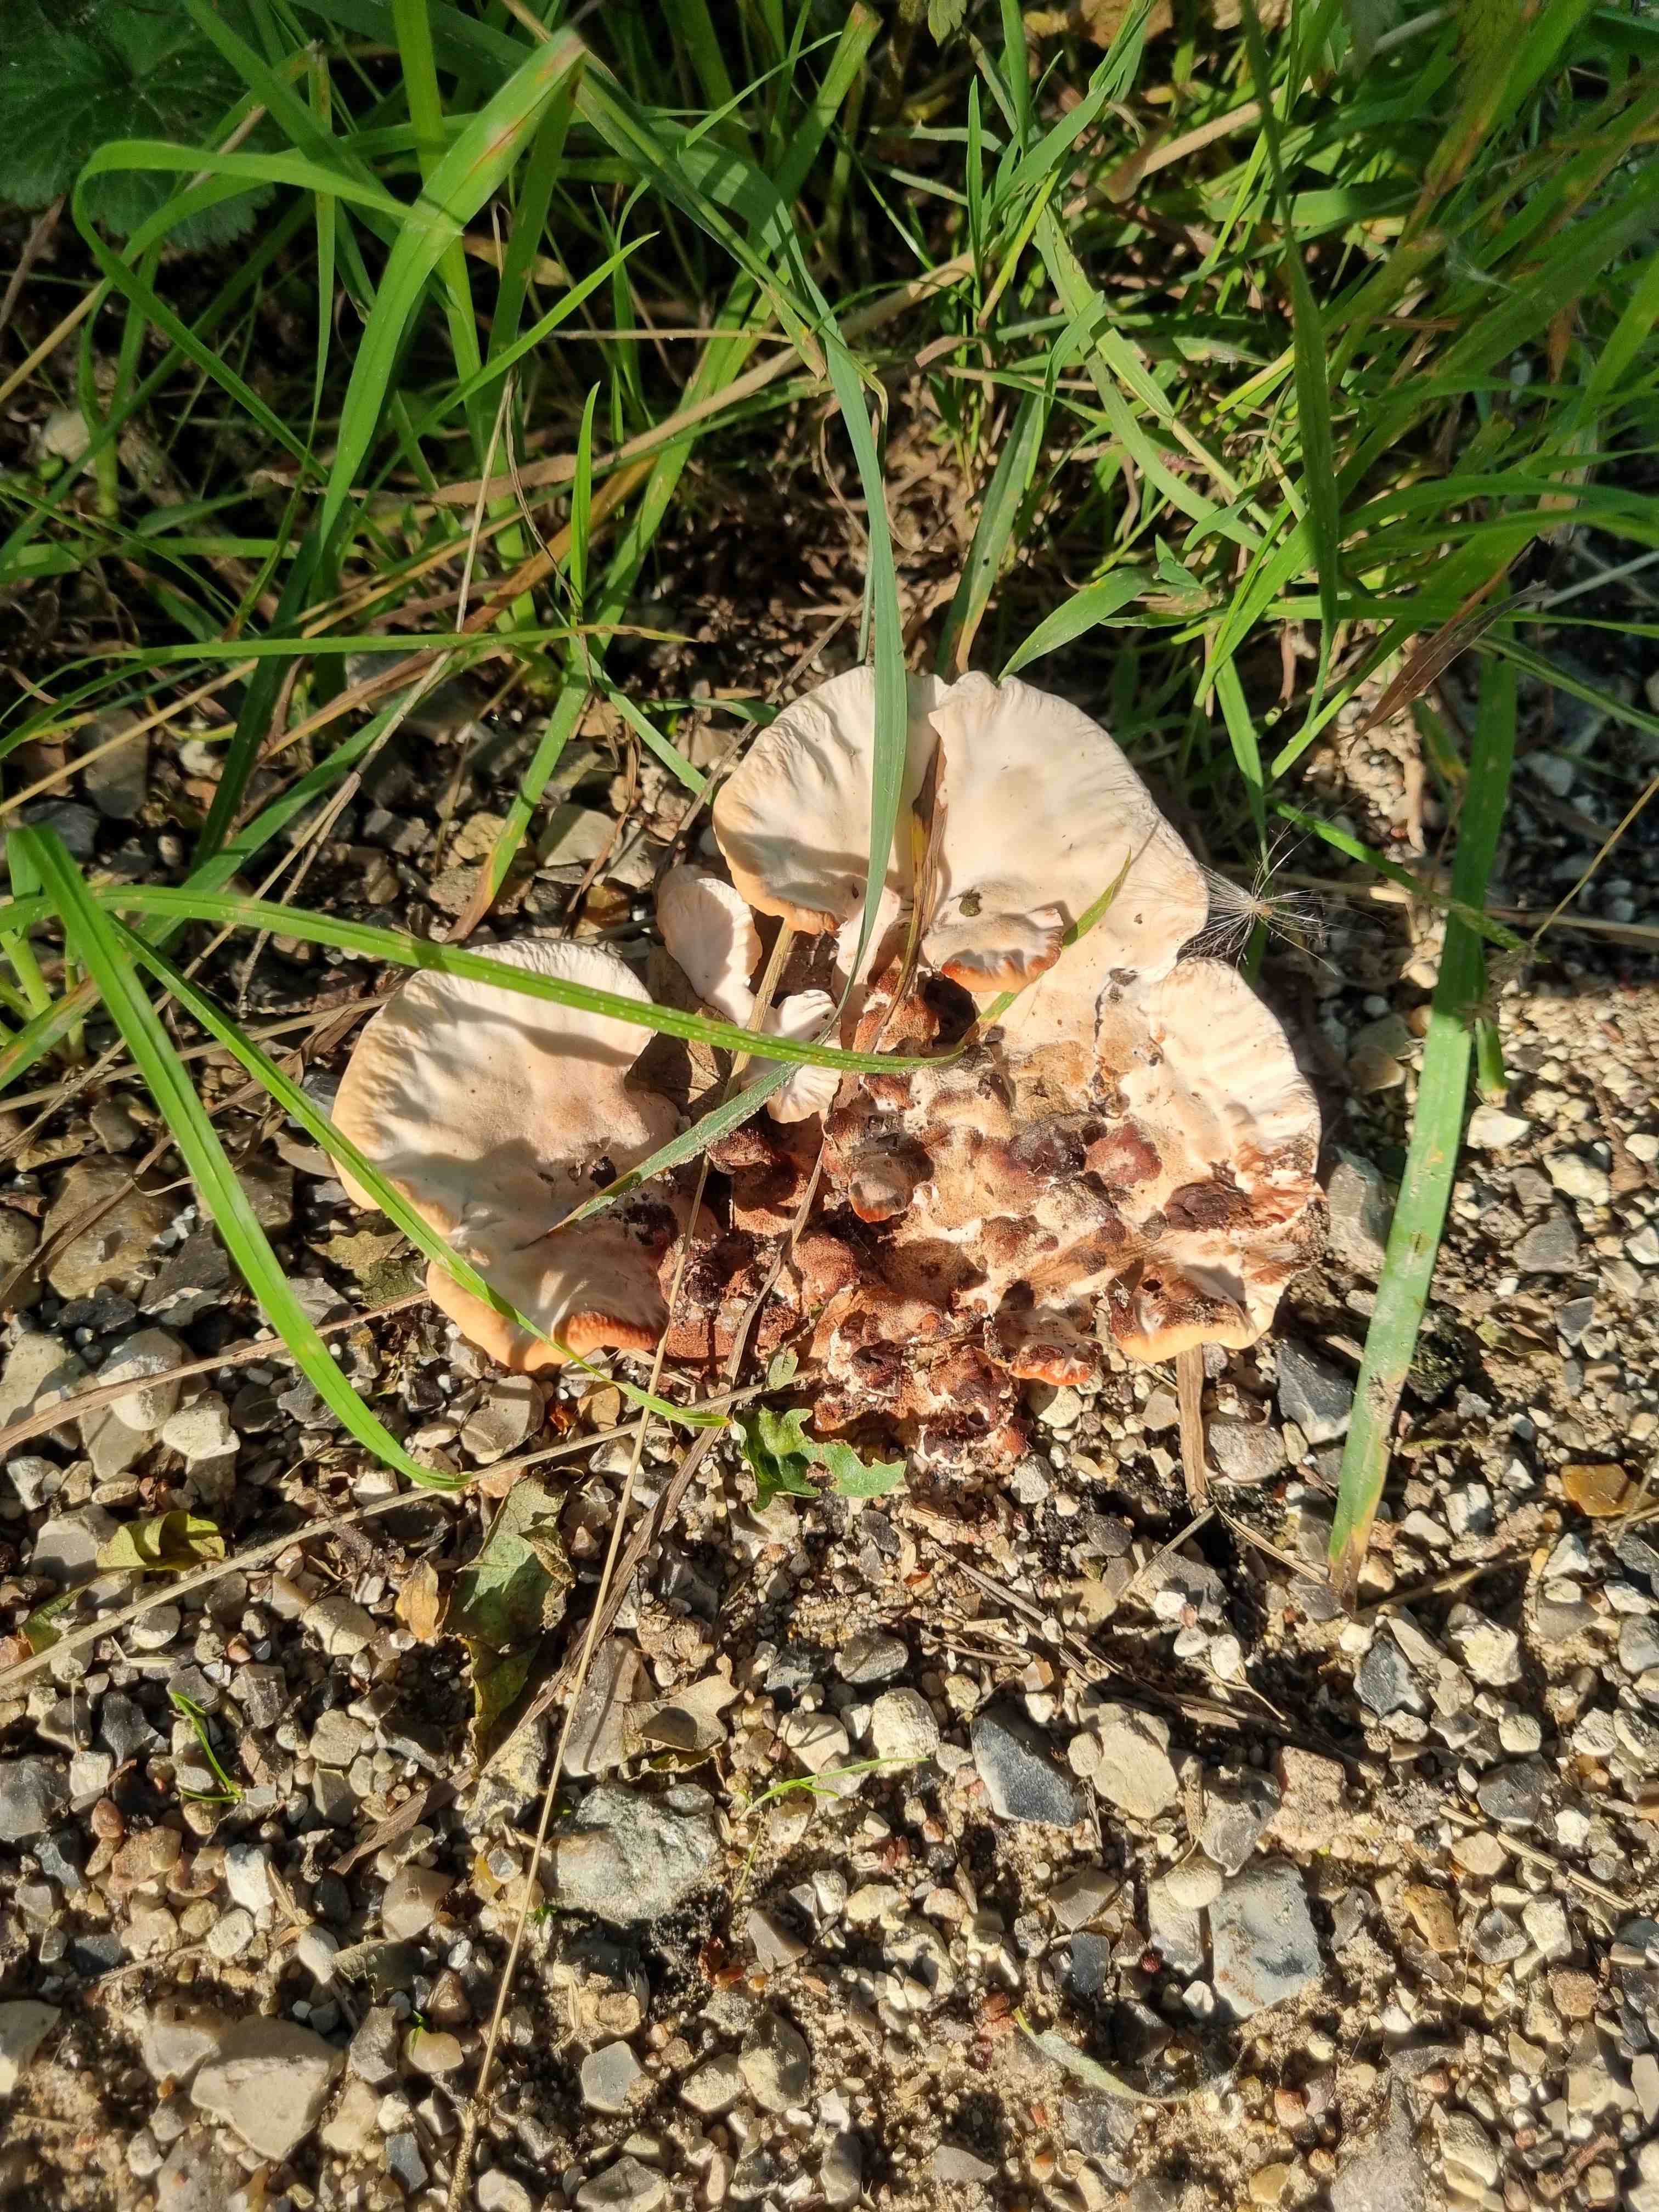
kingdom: Fungi
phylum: Basidiomycota
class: Agaricomycetes
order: Polyporales
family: Podoscyphaceae
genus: Abortiporus
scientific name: Abortiporus biennis
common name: rødmende pjalteporesvamp
